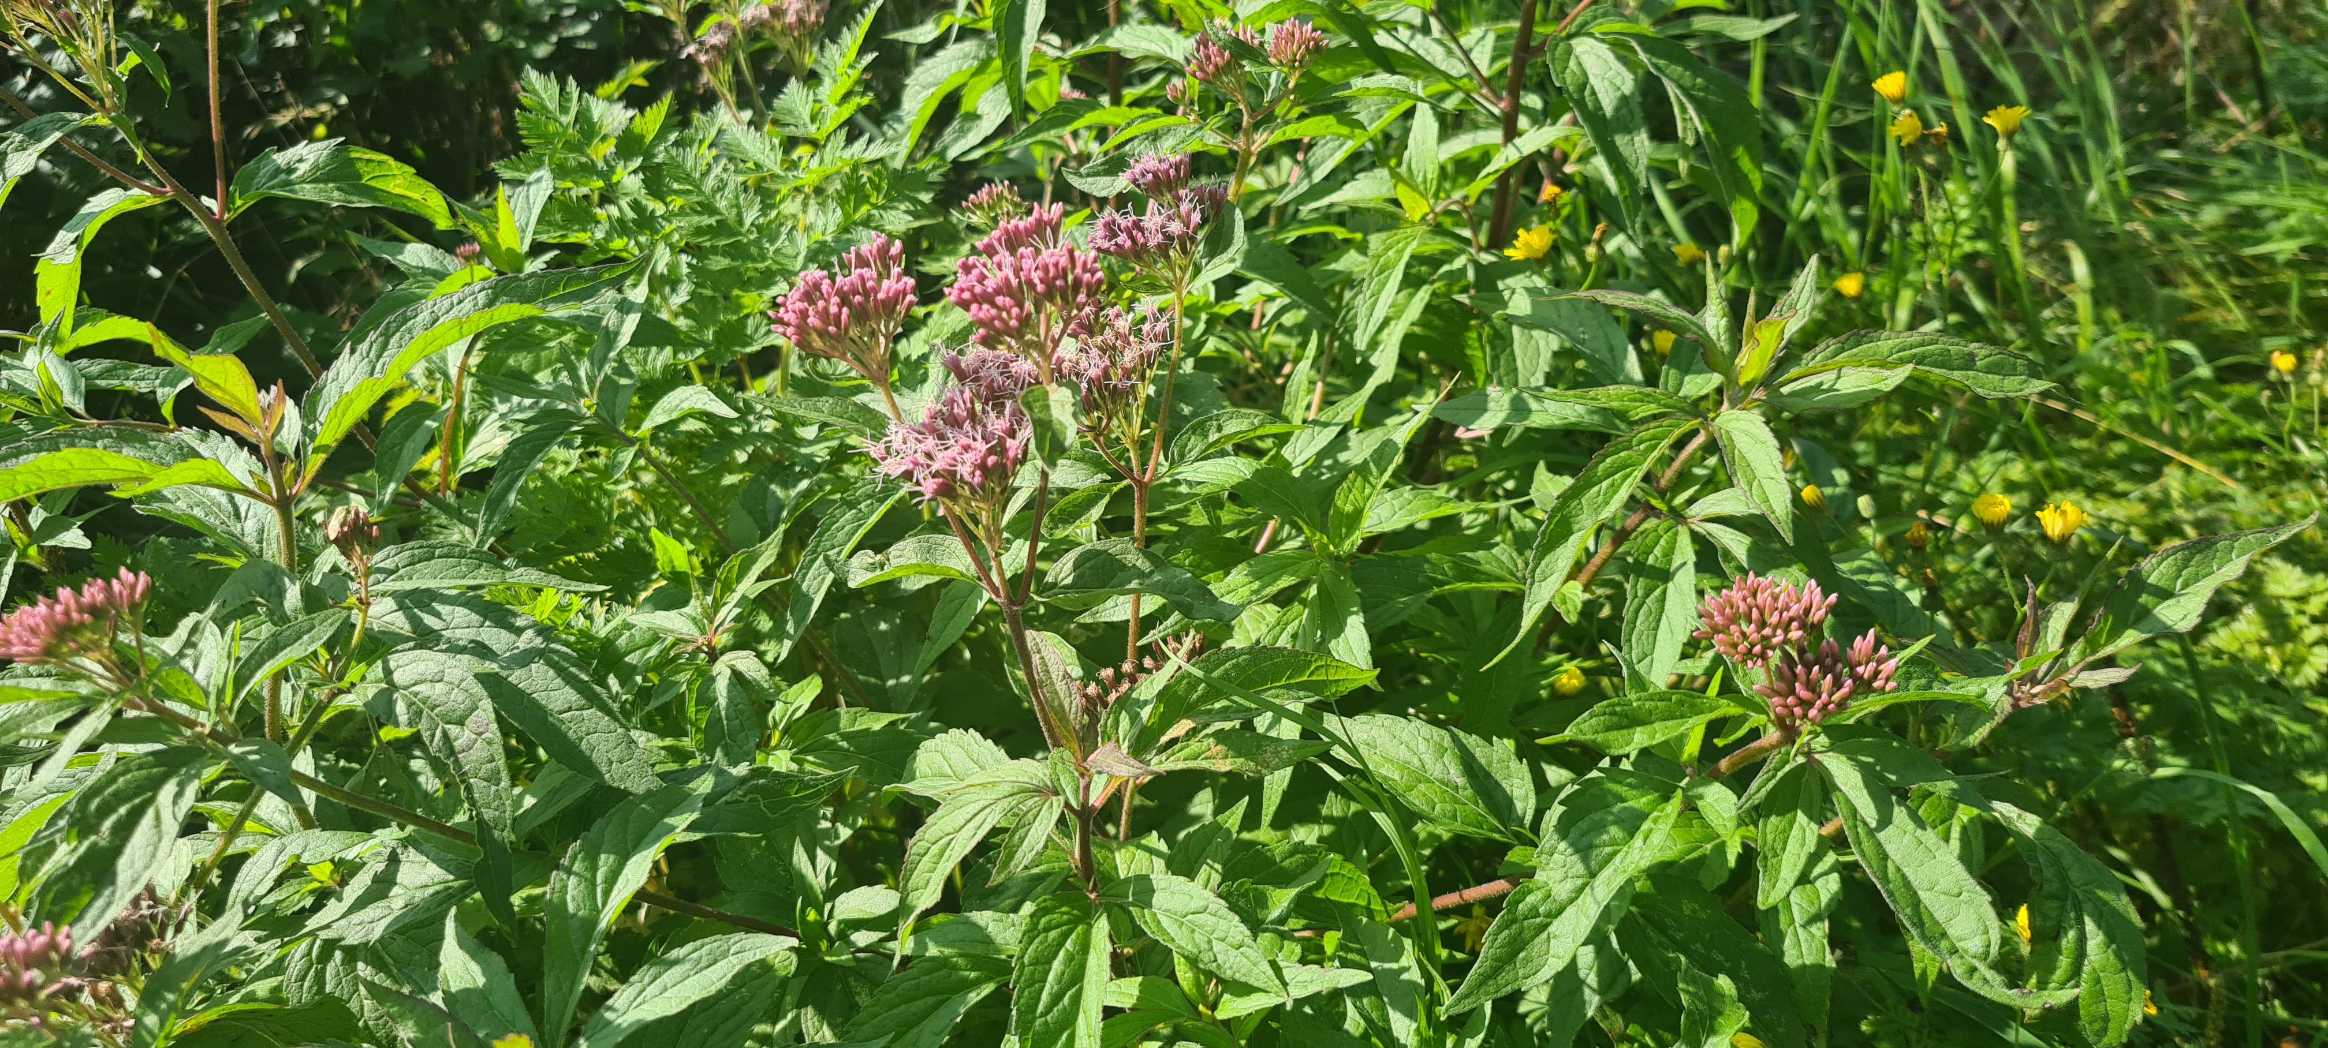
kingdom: Plantae
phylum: Tracheophyta
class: Magnoliopsida
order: Asterales
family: Asteraceae
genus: Eupatorium
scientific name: Eupatorium cannabinum
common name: Hjortetrøst
